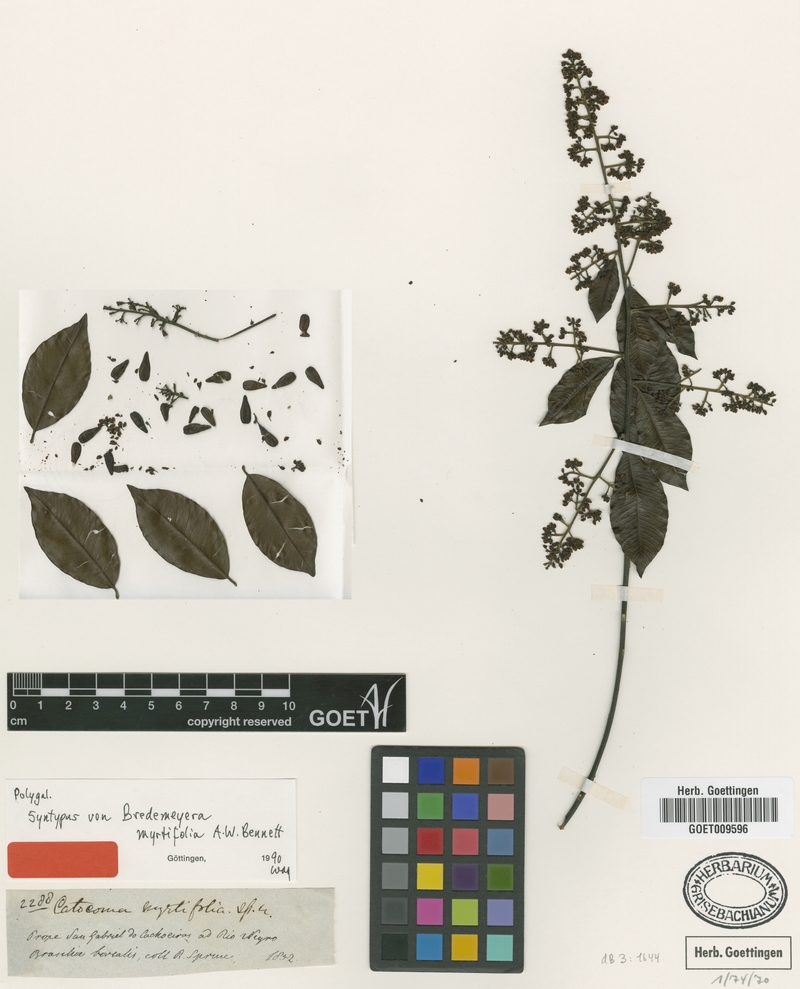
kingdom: Plantae
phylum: Tracheophyta
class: Magnoliopsida
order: Fabales
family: Polygalaceae
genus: Bredemeyera
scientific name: Bredemeyera myrtifolia
